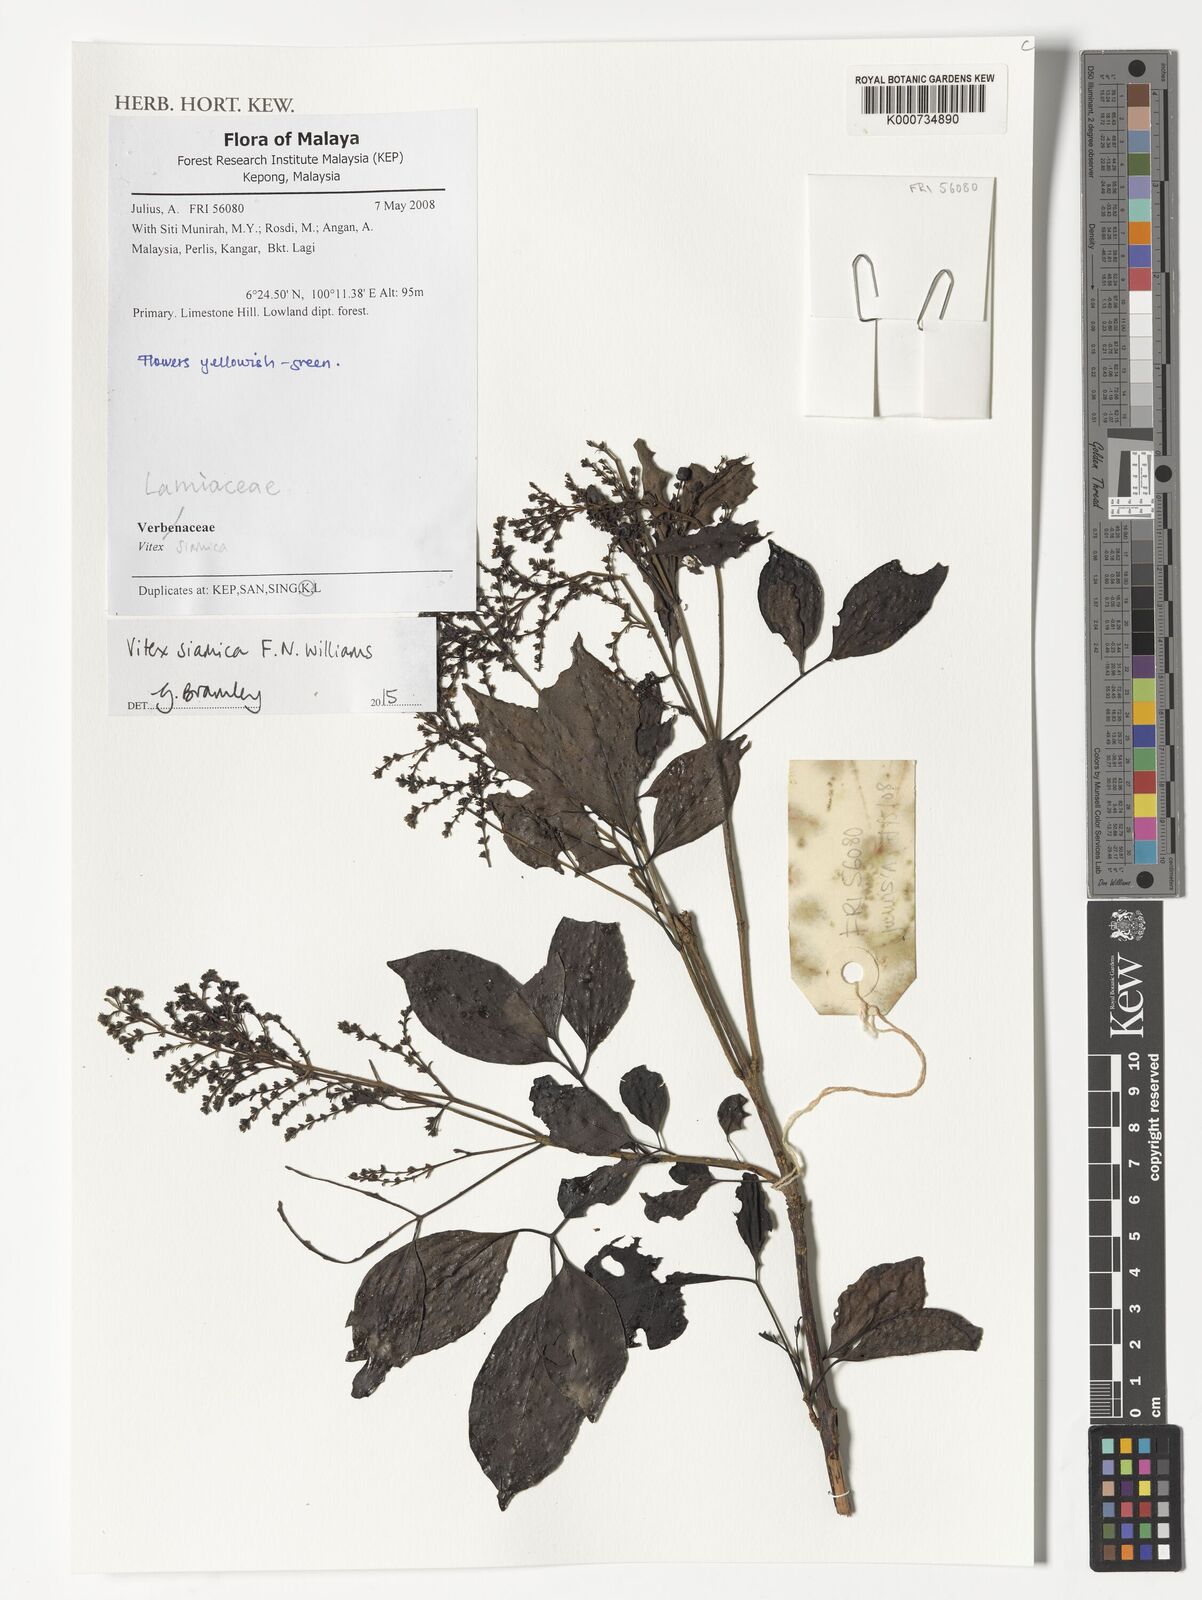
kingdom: Plantae
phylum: Tracheophyta
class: Magnoliopsida
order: Lamiales
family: Lamiaceae
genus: Vitex
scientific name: Vitex siamica
